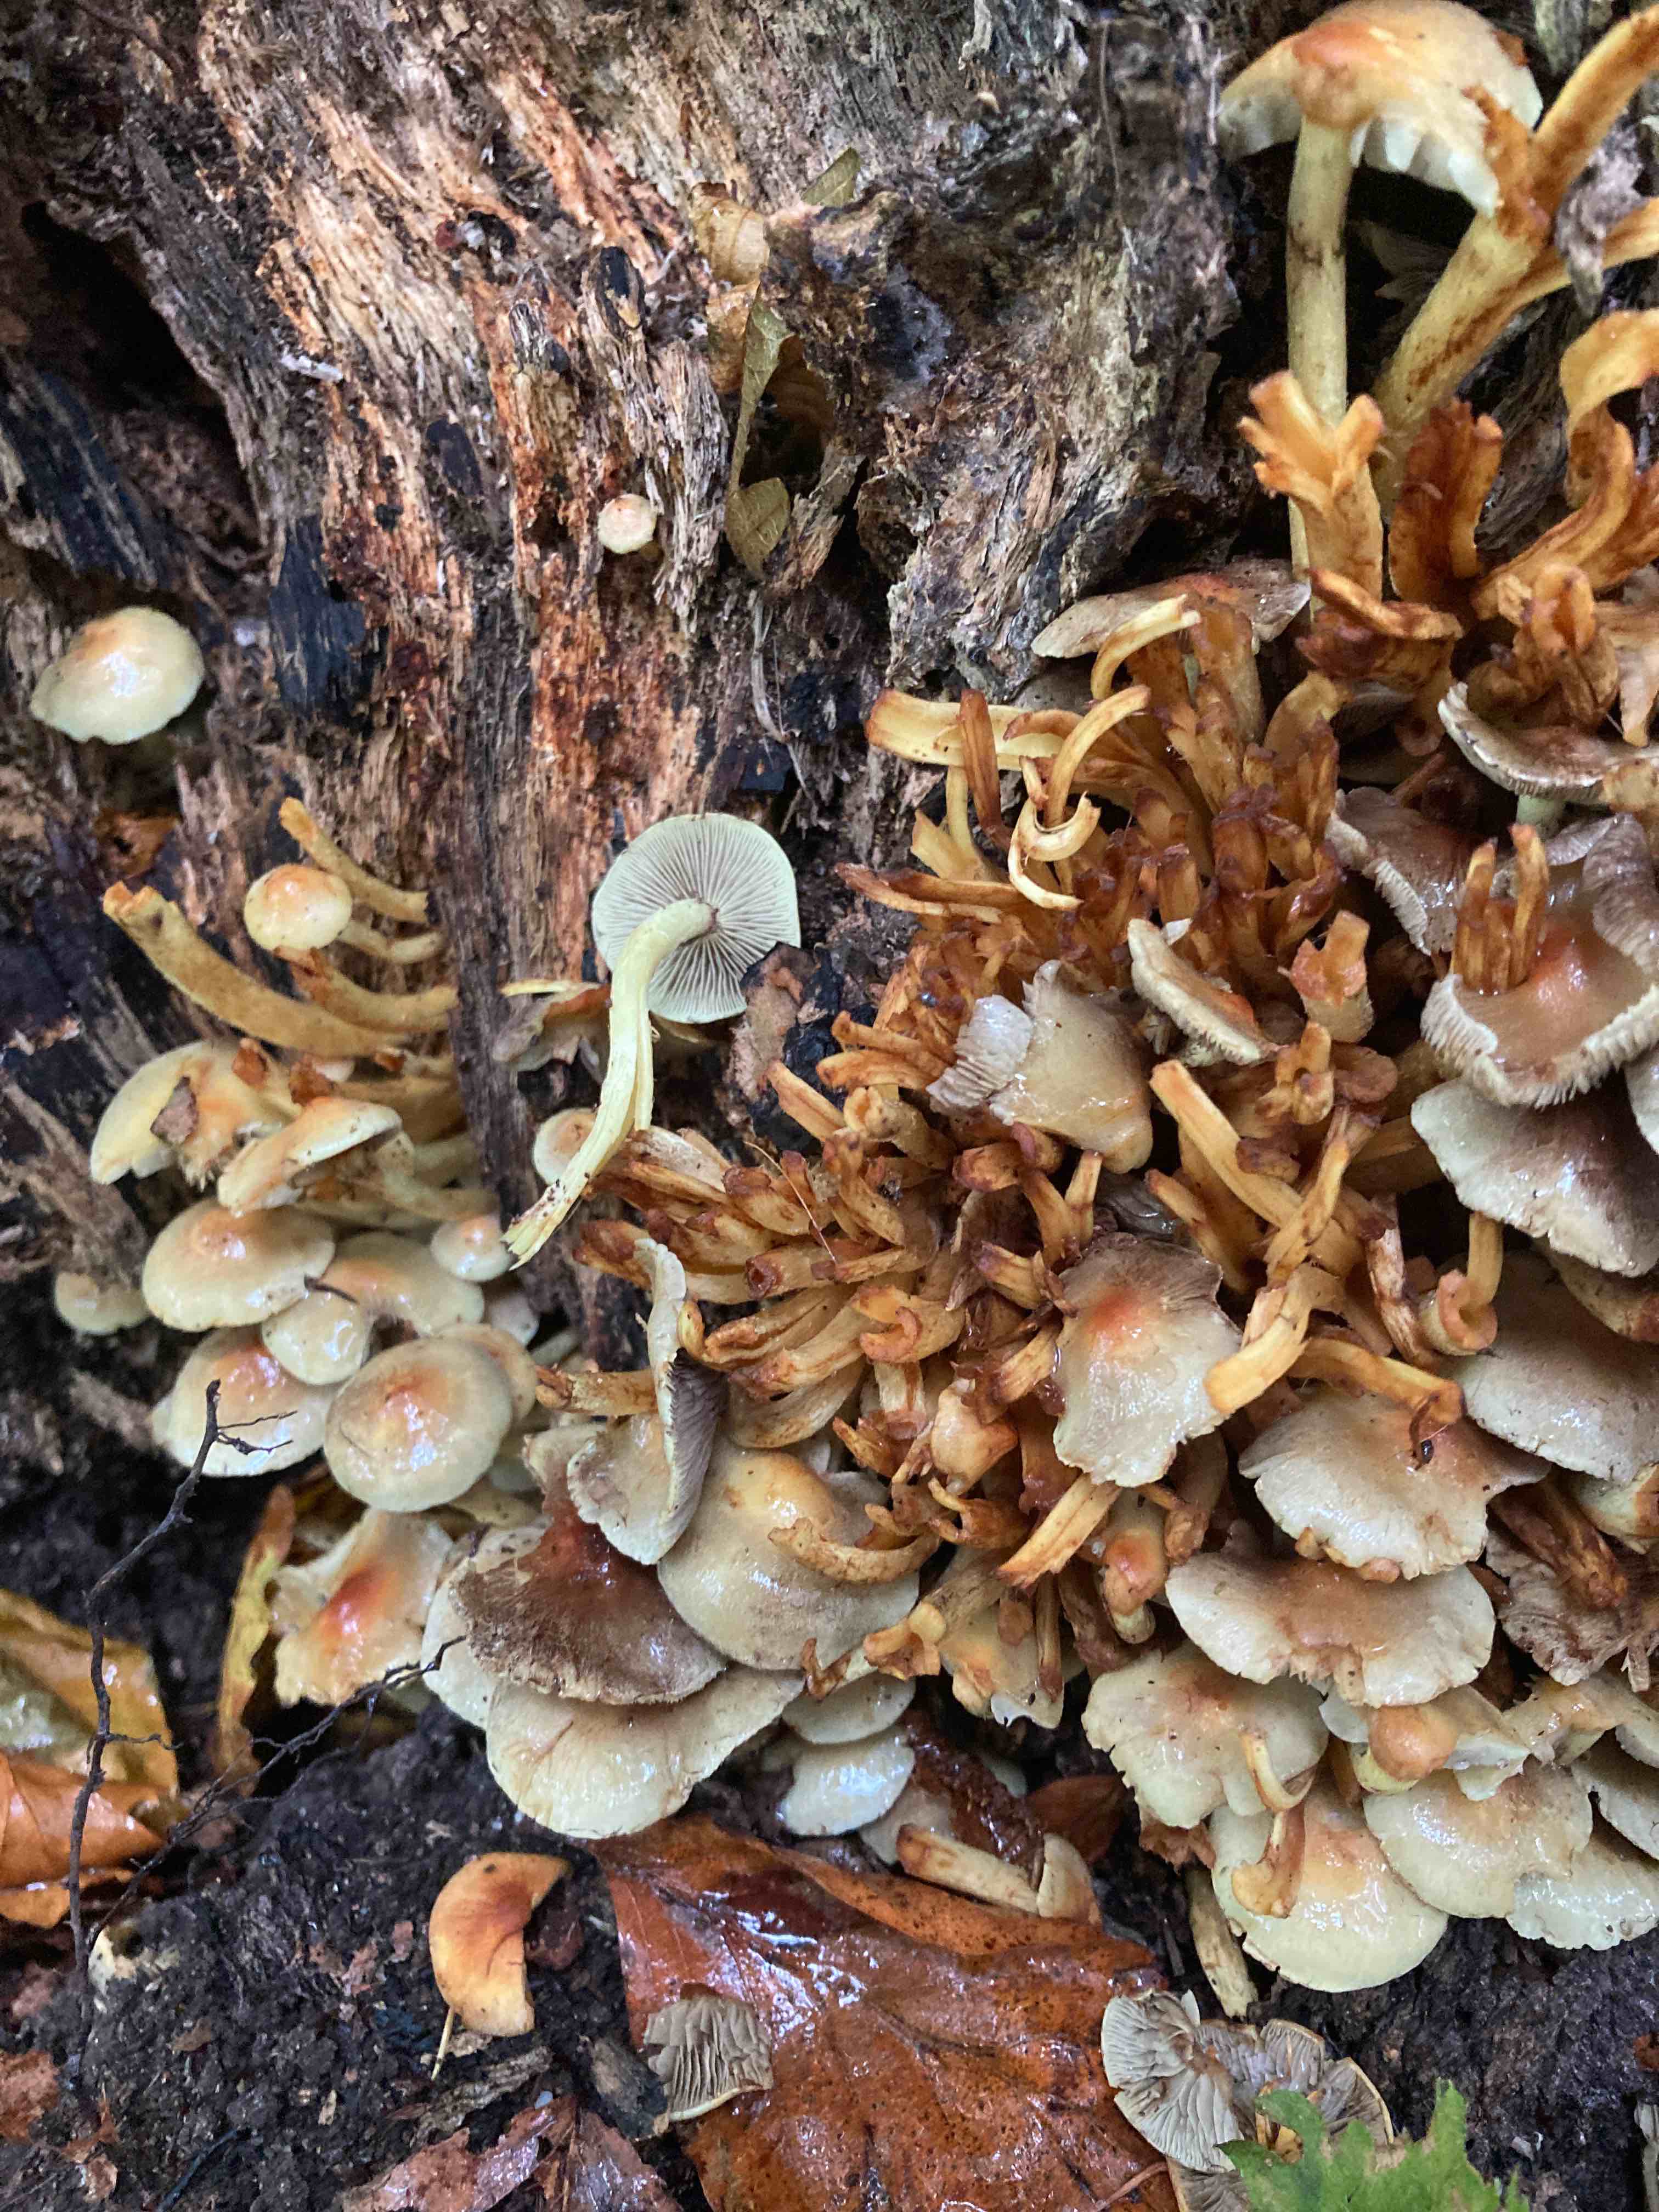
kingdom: Fungi
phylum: Basidiomycota
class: Agaricomycetes
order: Agaricales
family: Strophariaceae
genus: Hypholoma
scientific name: Hypholoma fasciculare
